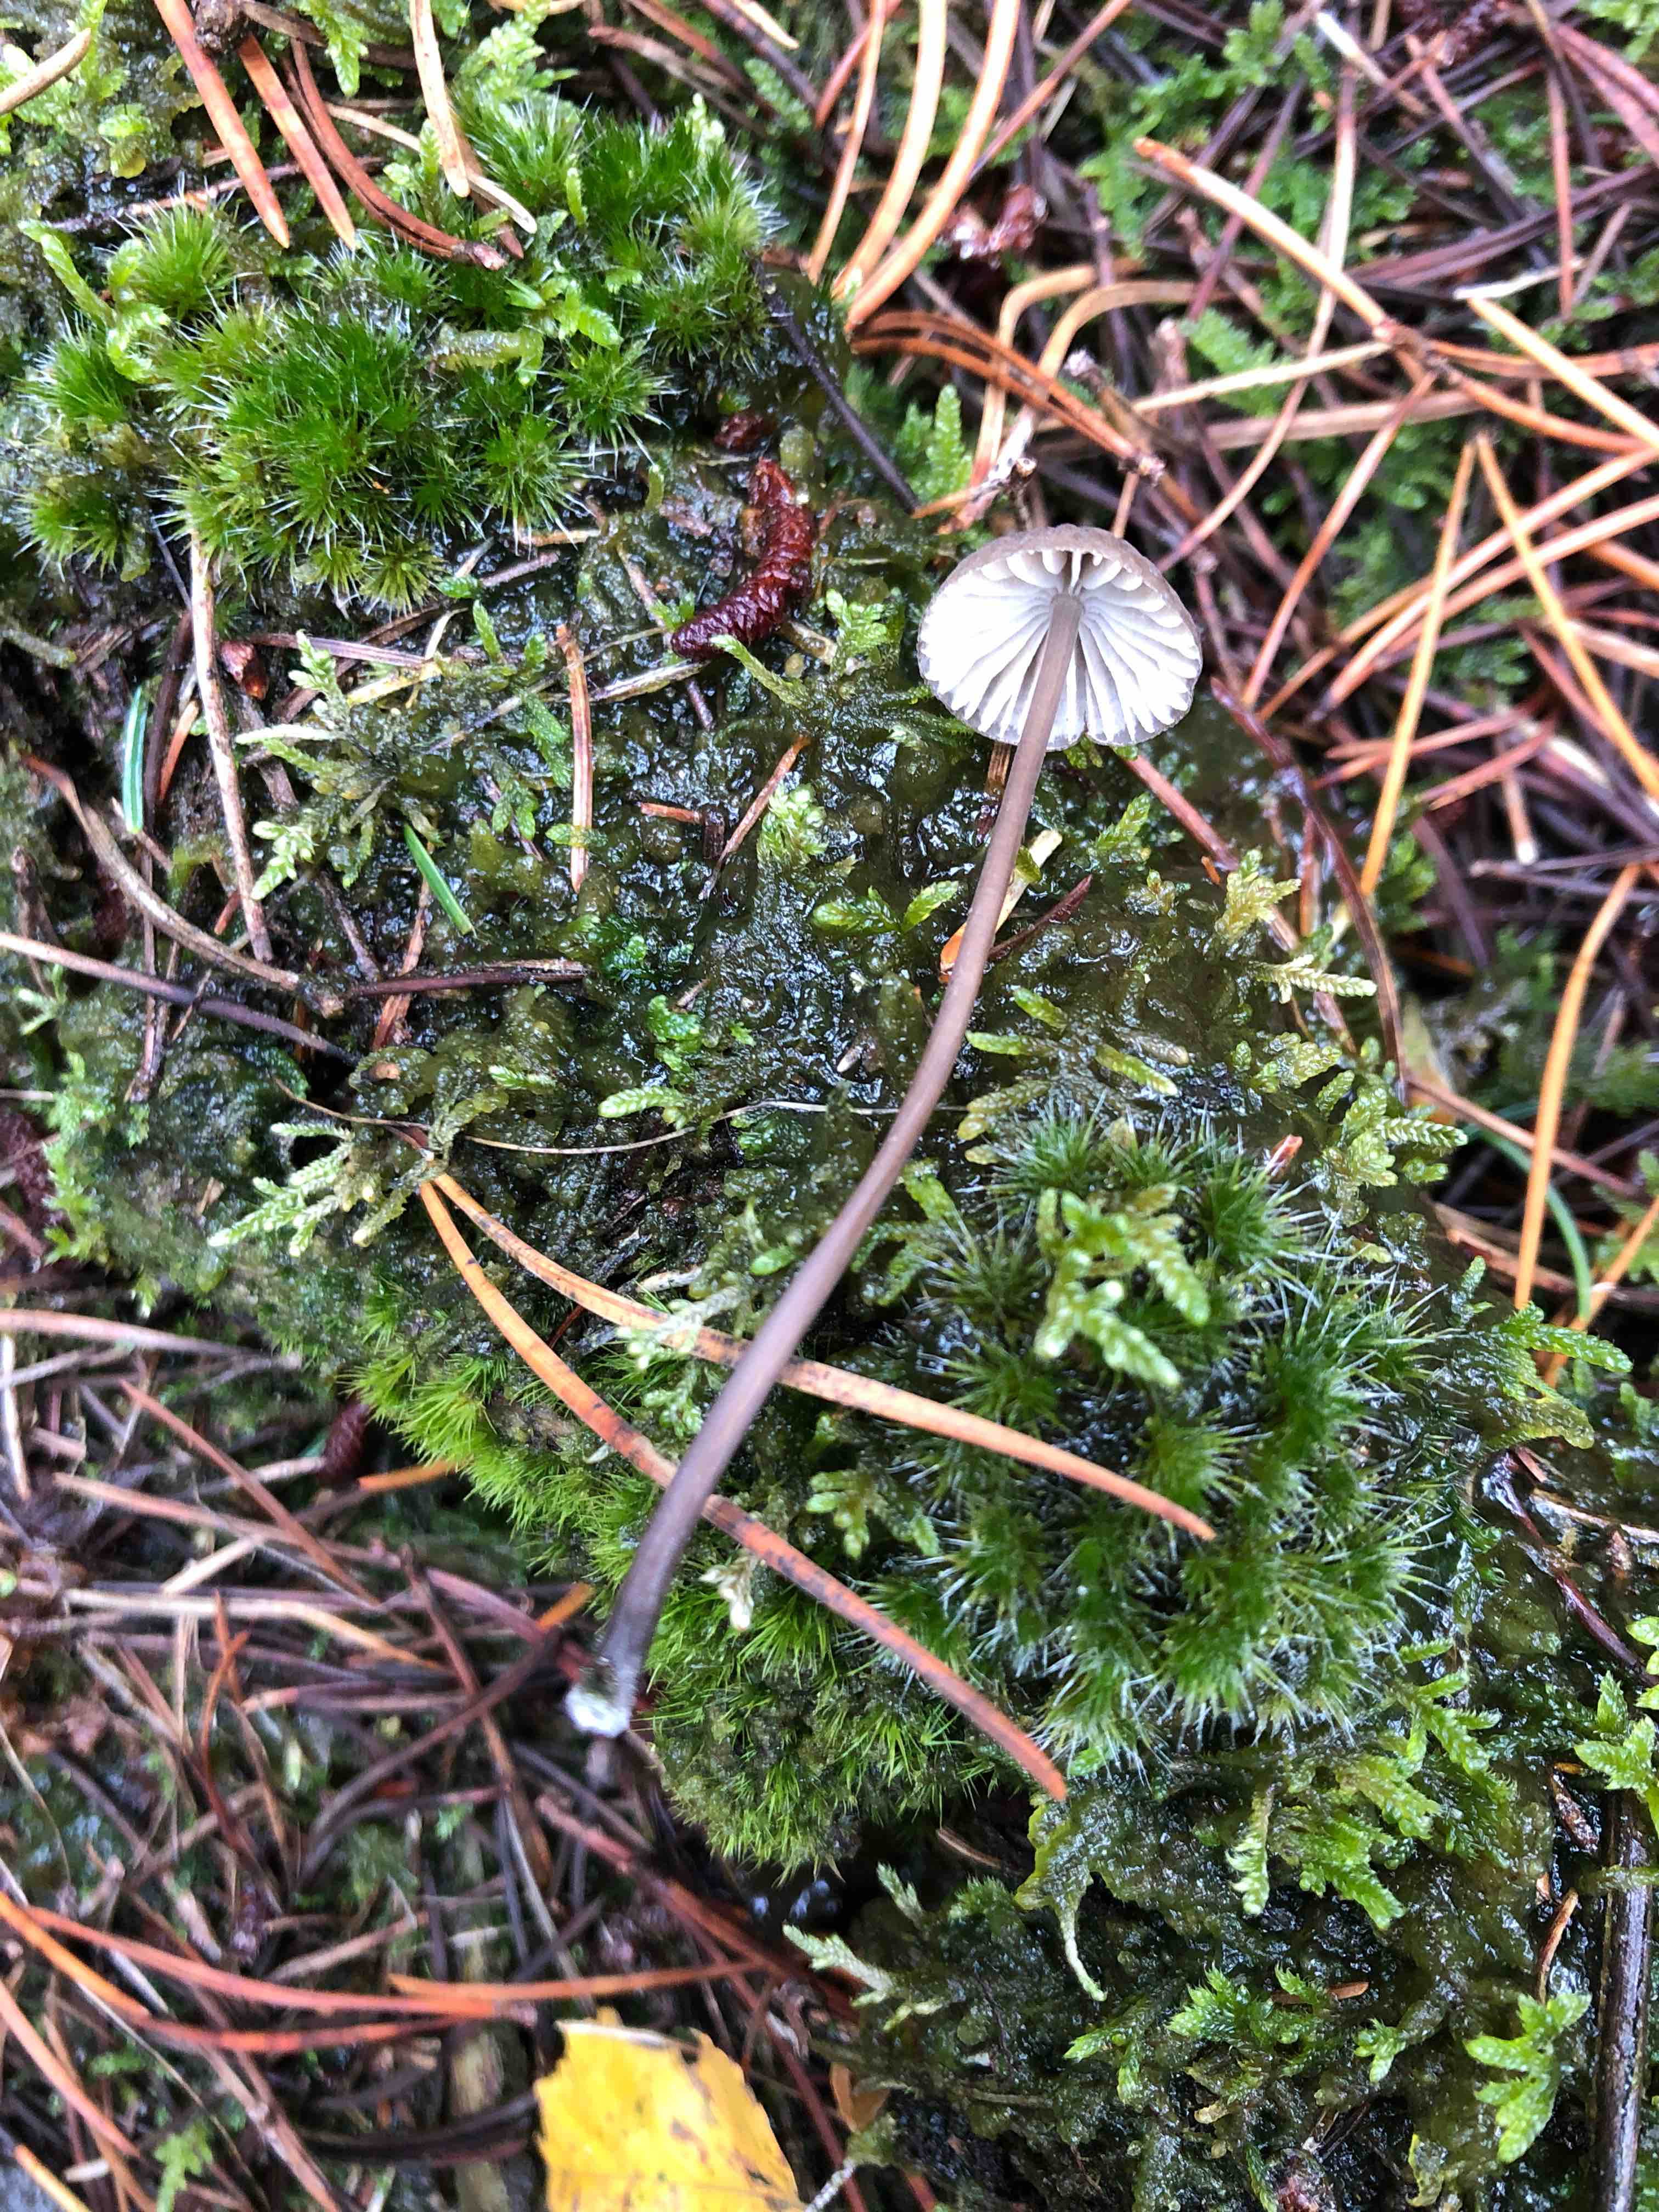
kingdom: Fungi
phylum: Basidiomycota
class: Agaricomycetes
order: Agaricales
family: Mycenaceae
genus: Mycena
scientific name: Mycena galopus
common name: hvidmælket huesvamp
